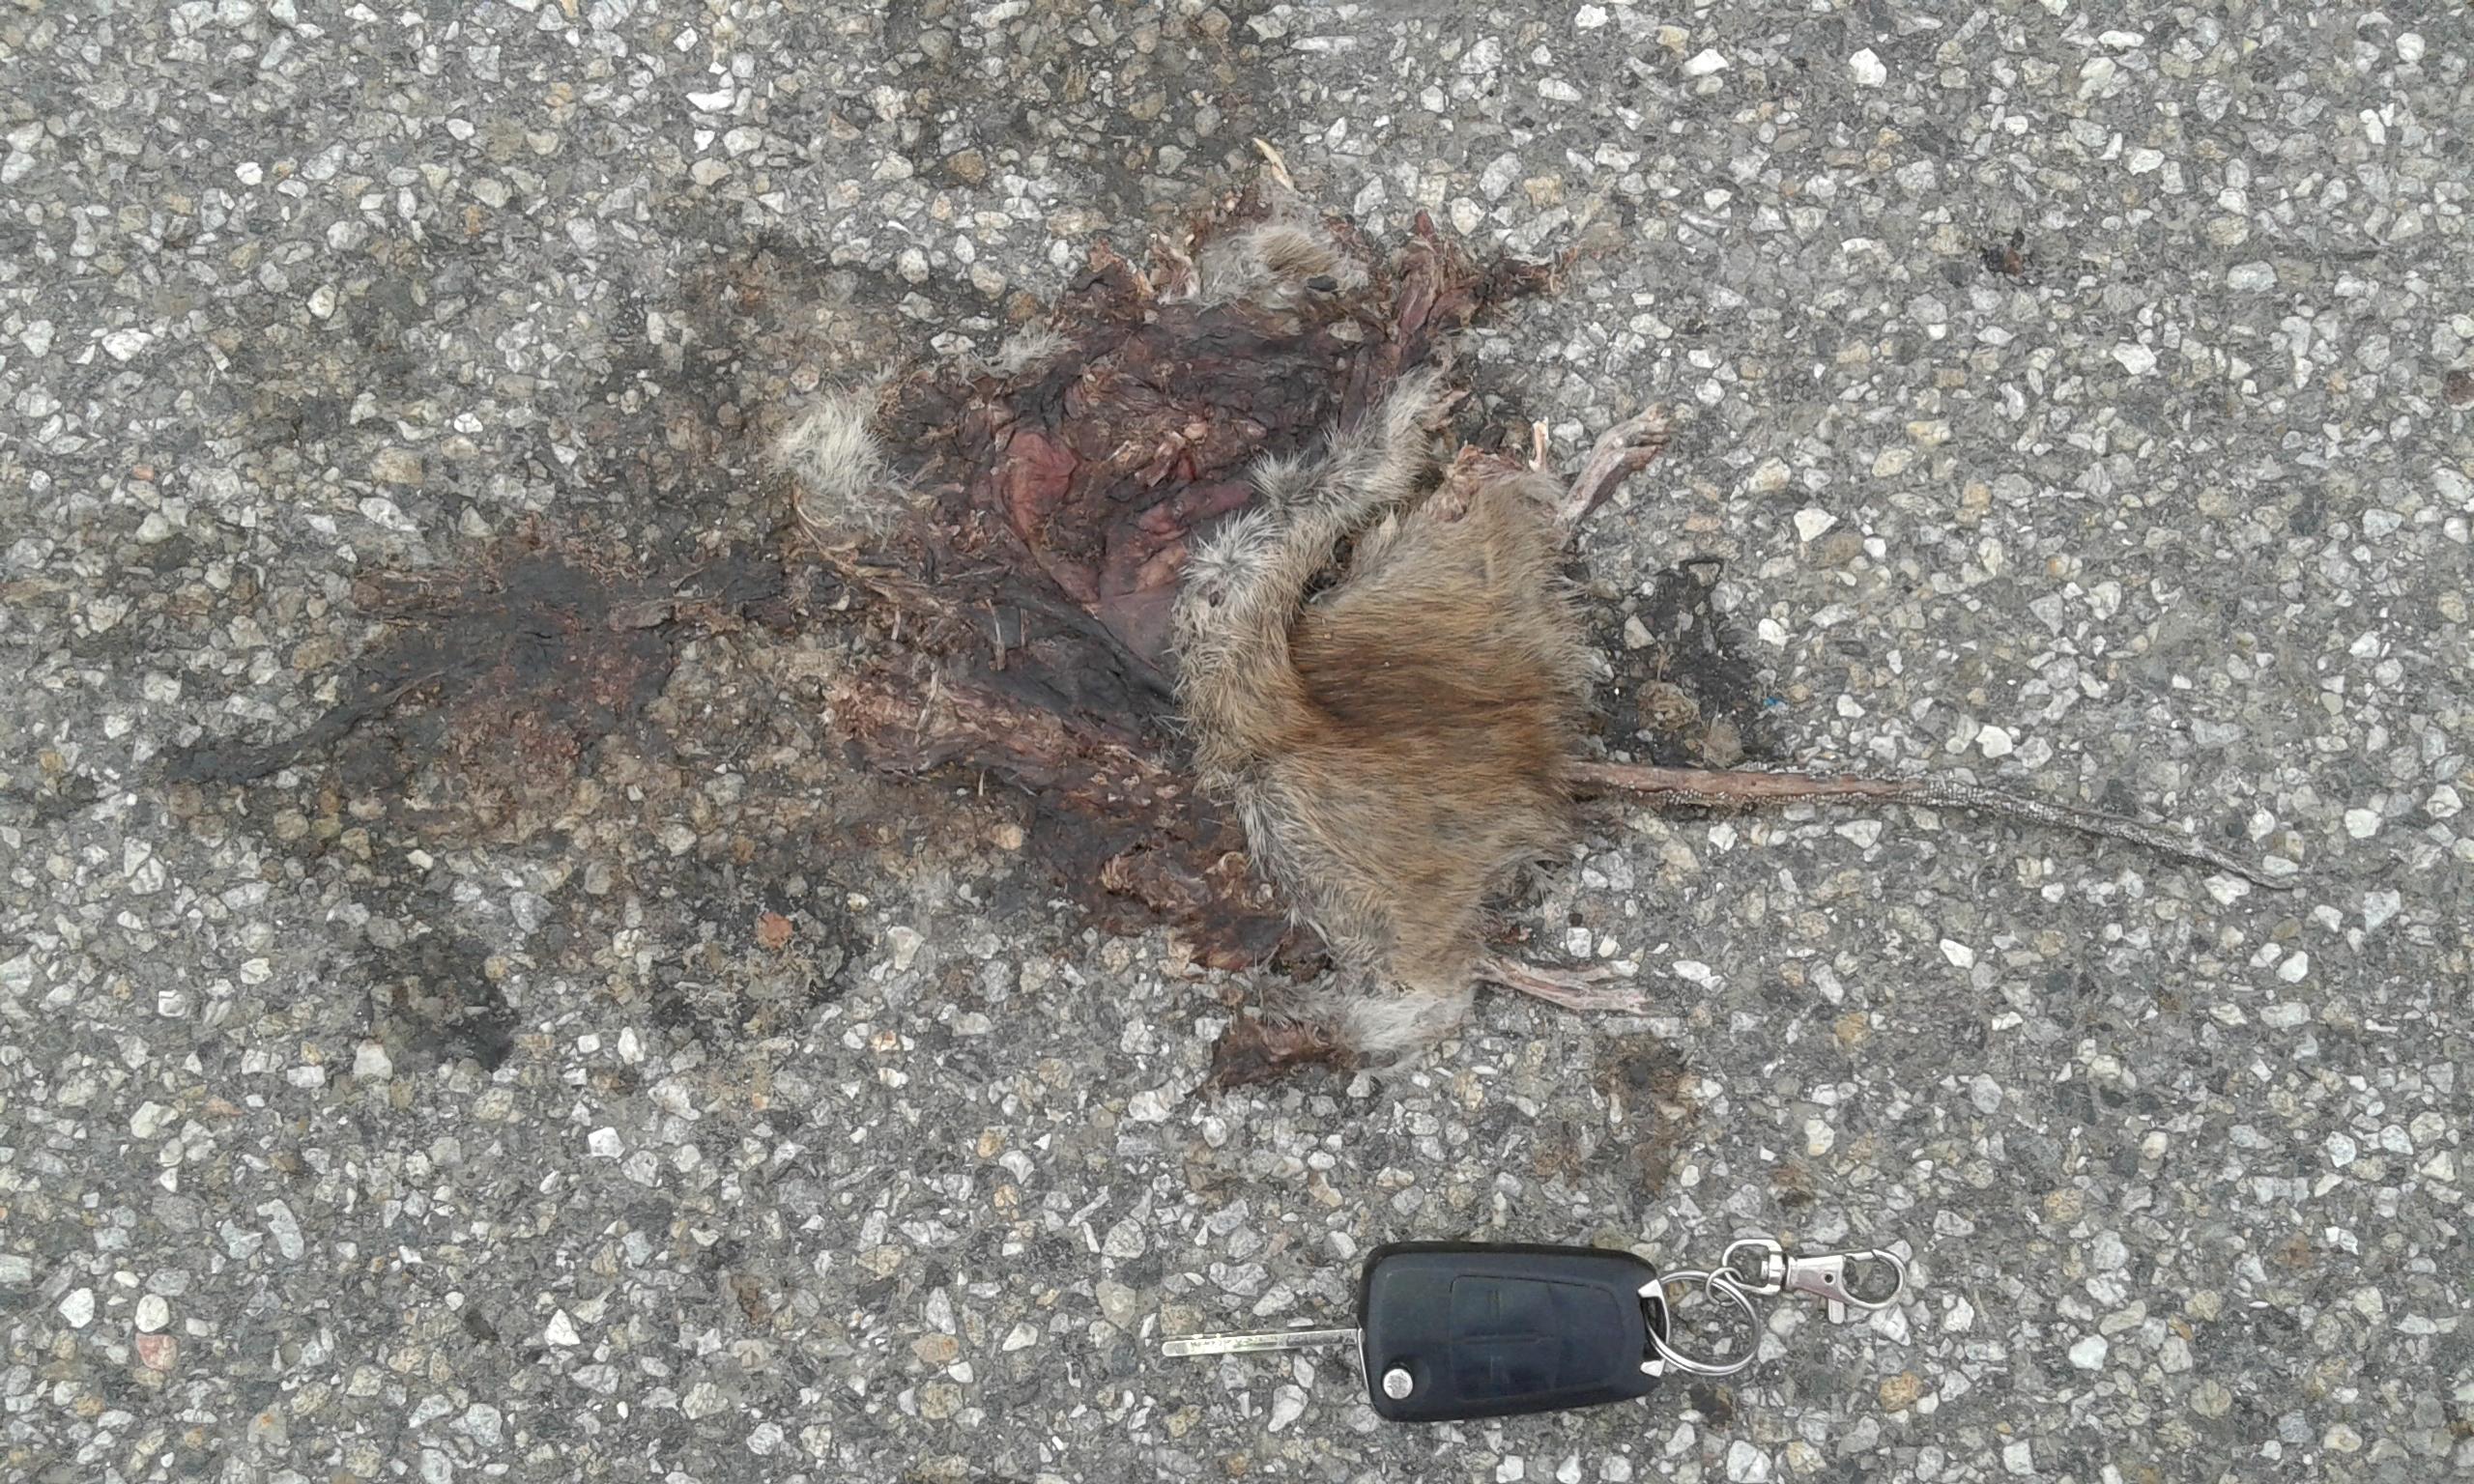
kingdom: Animalia
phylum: Chordata
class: Mammalia
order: Rodentia
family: Muridae
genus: Rattus
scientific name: Rattus norvegicus
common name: Brown rat
